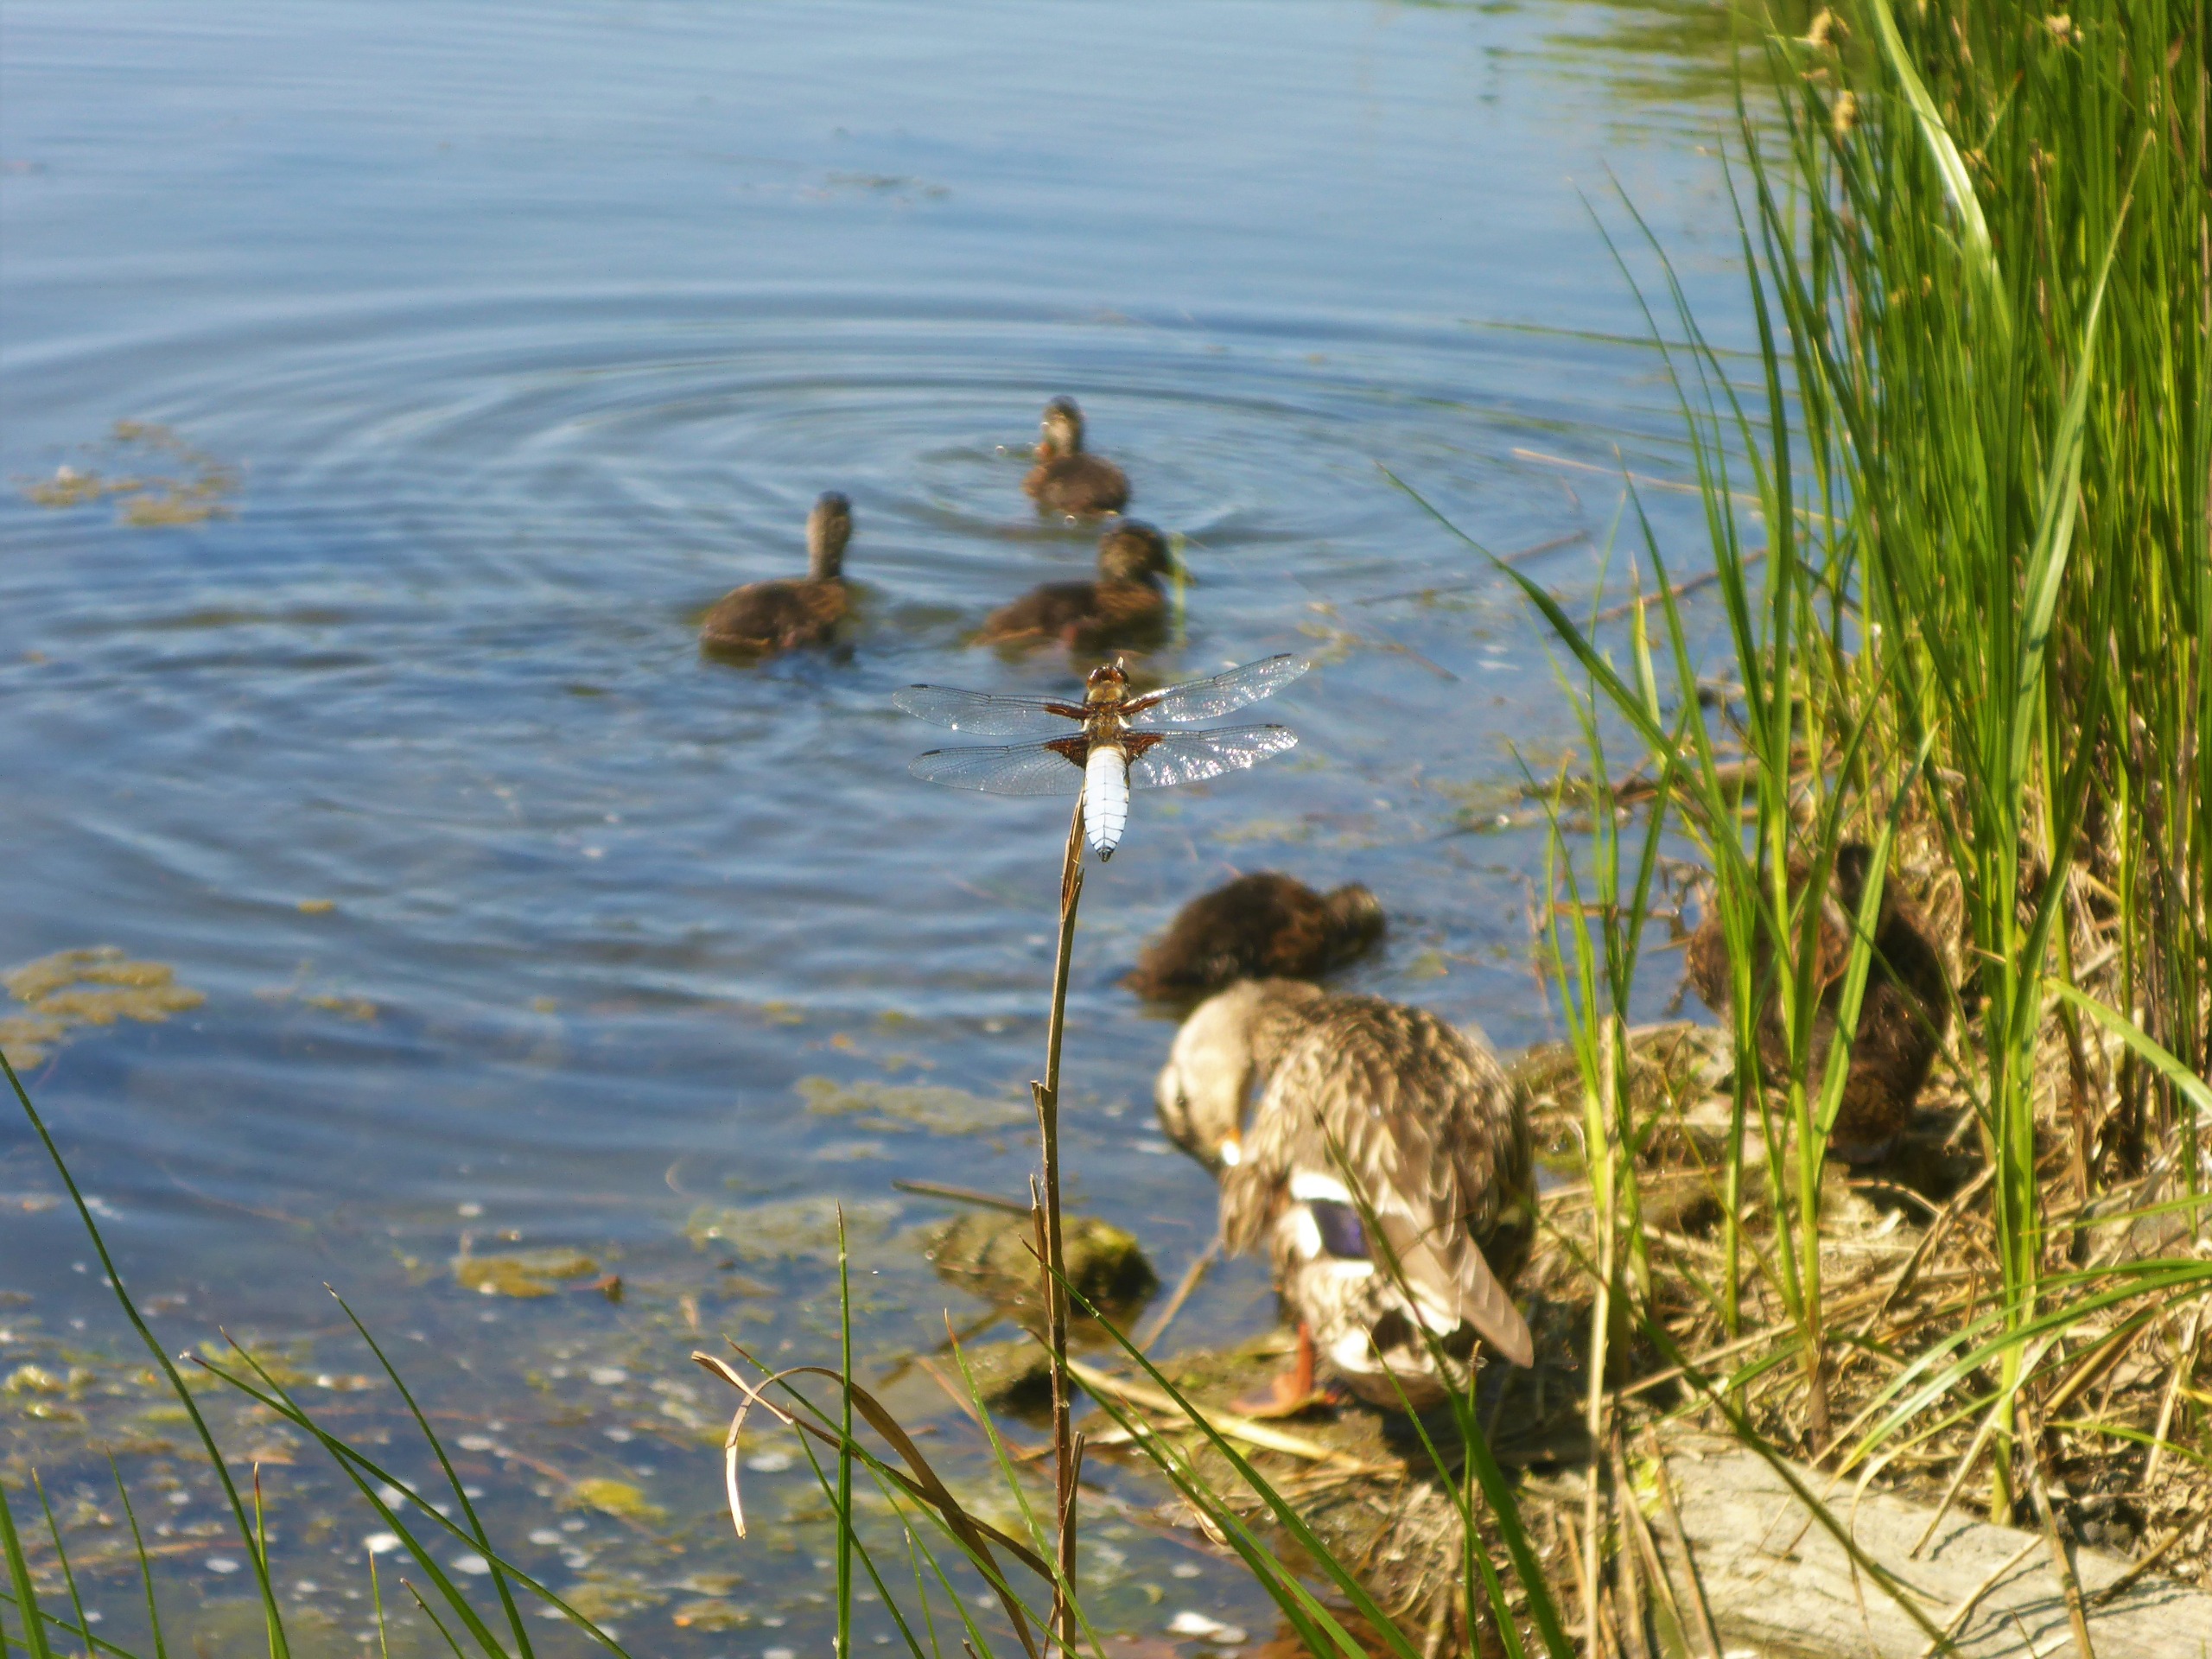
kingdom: Animalia
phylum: Arthropoda
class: Insecta
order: Odonata
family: Libellulidae
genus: Libellula
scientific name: Libellula depressa
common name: Blå libel
